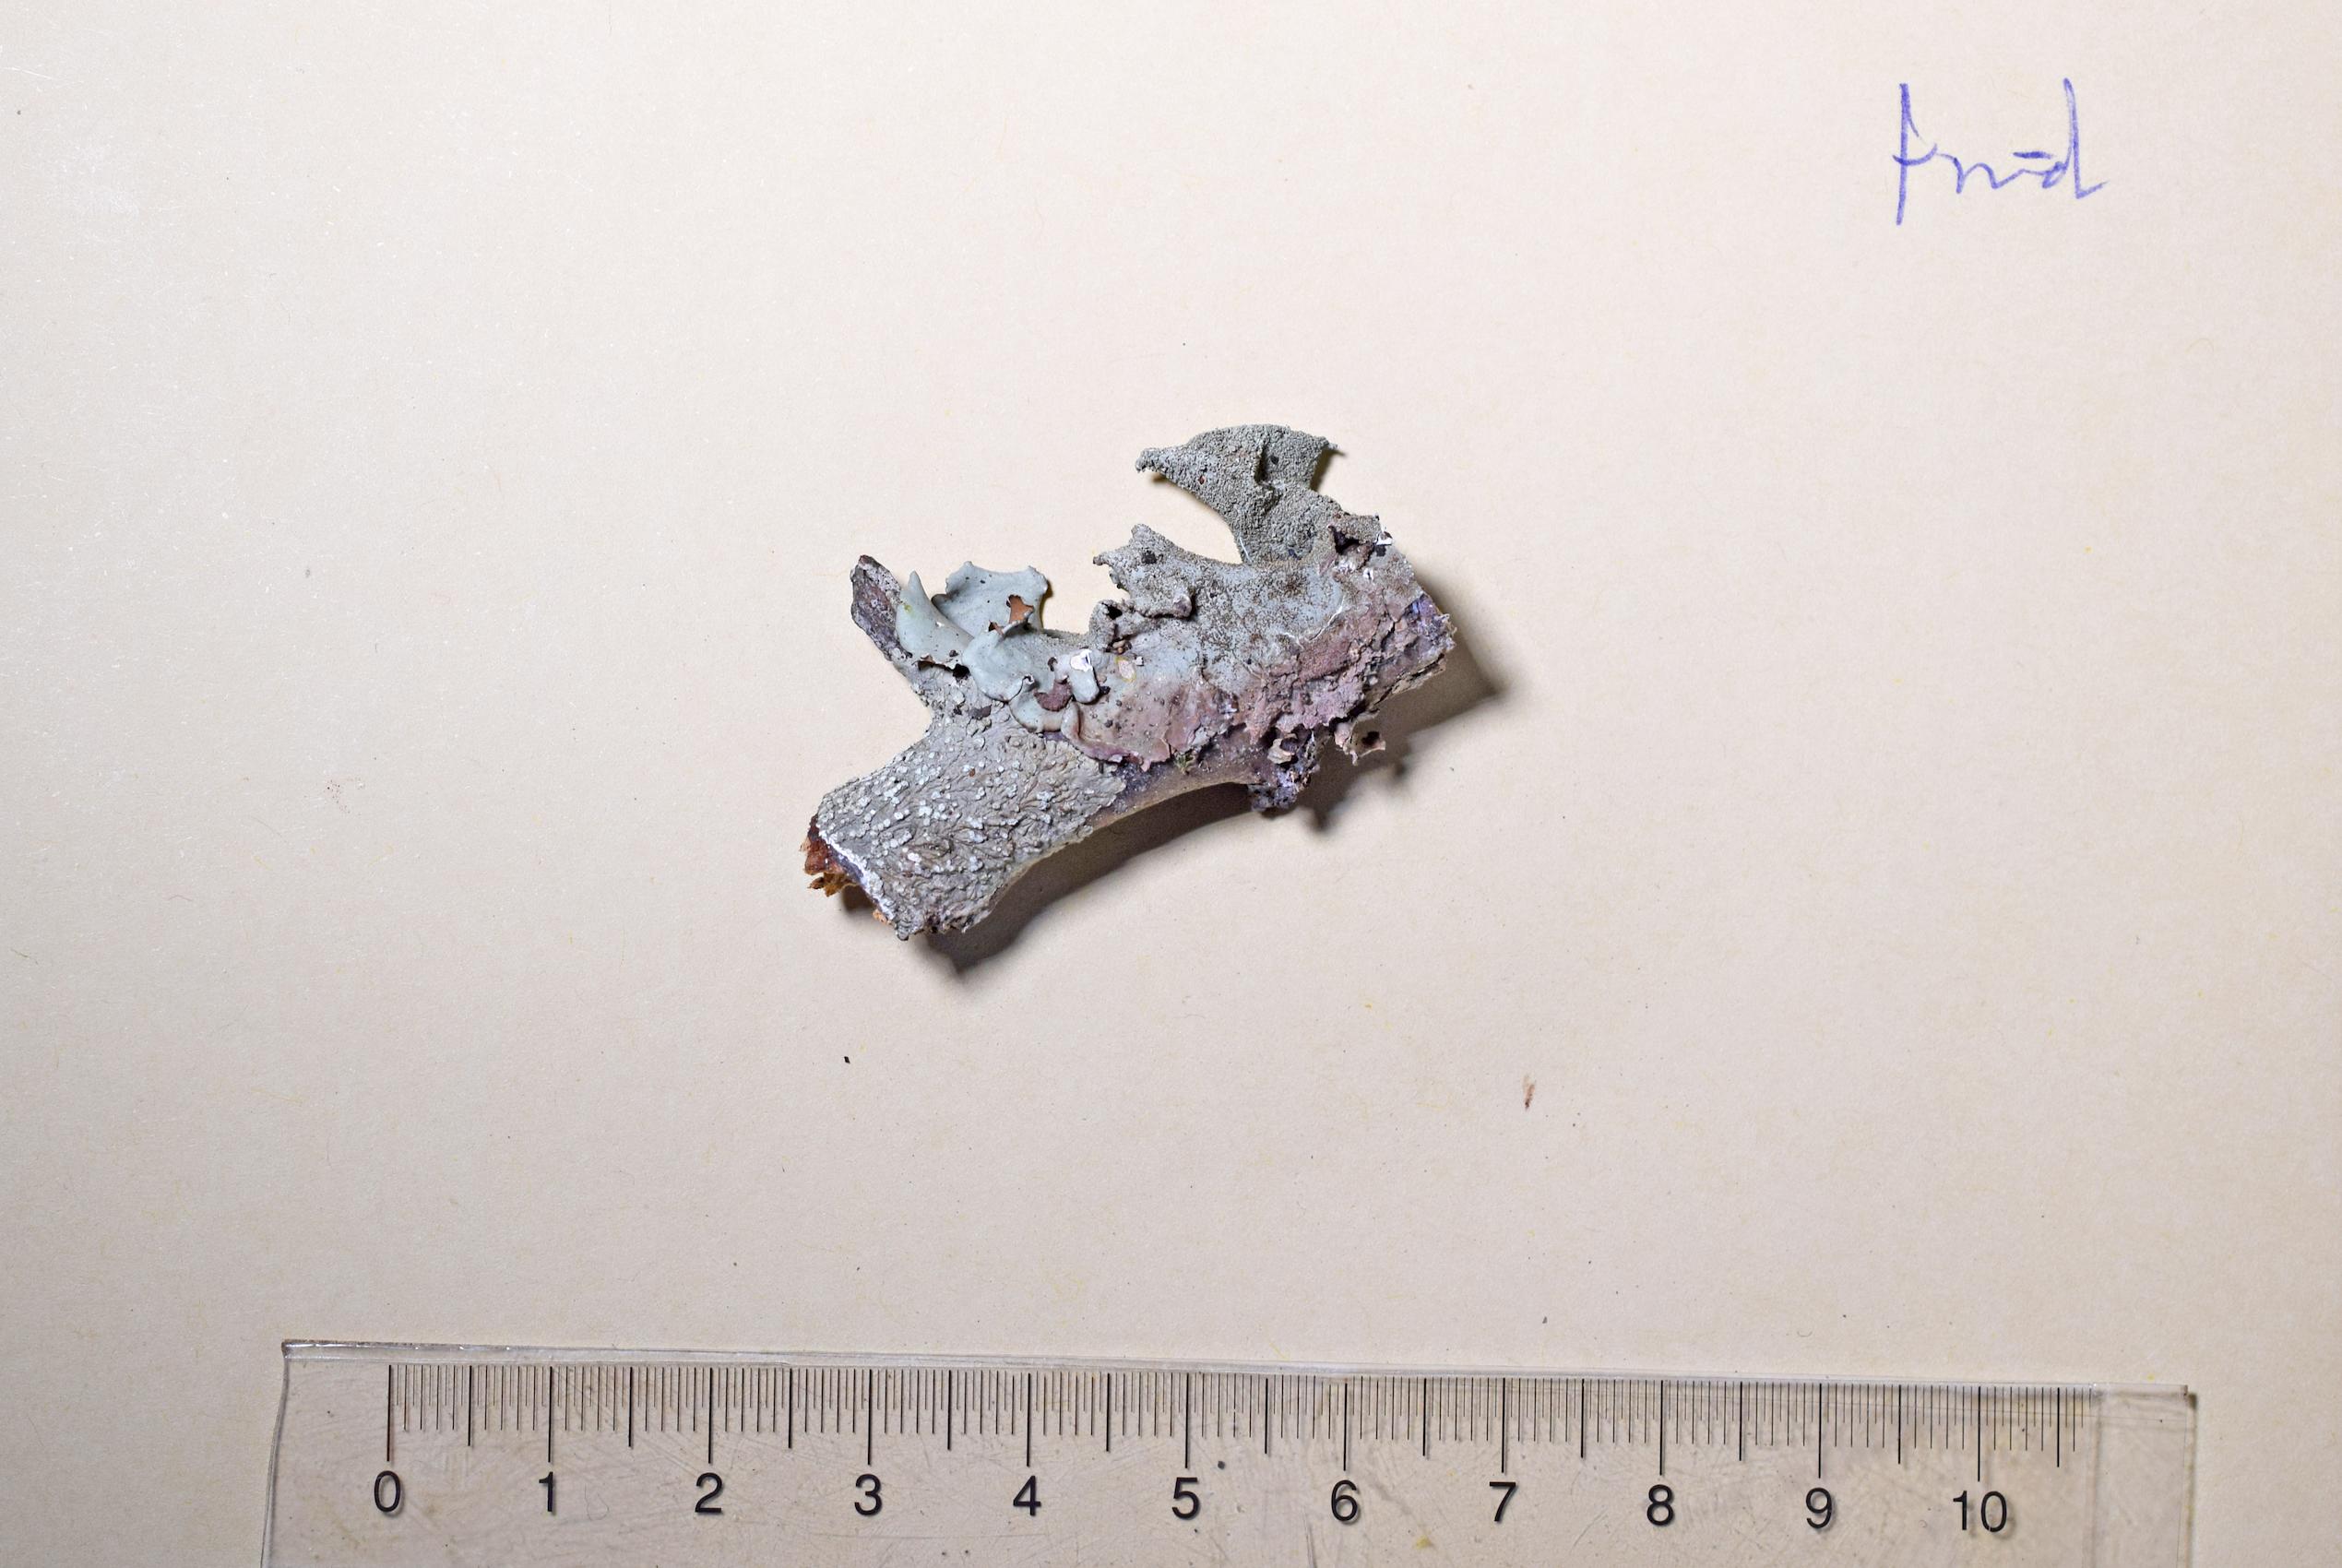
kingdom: Fungi
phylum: Ascomycota
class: Lecanoromycetes
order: Lecanorales
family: Parmeliaceae
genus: Parmotrema
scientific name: Parmotrema
